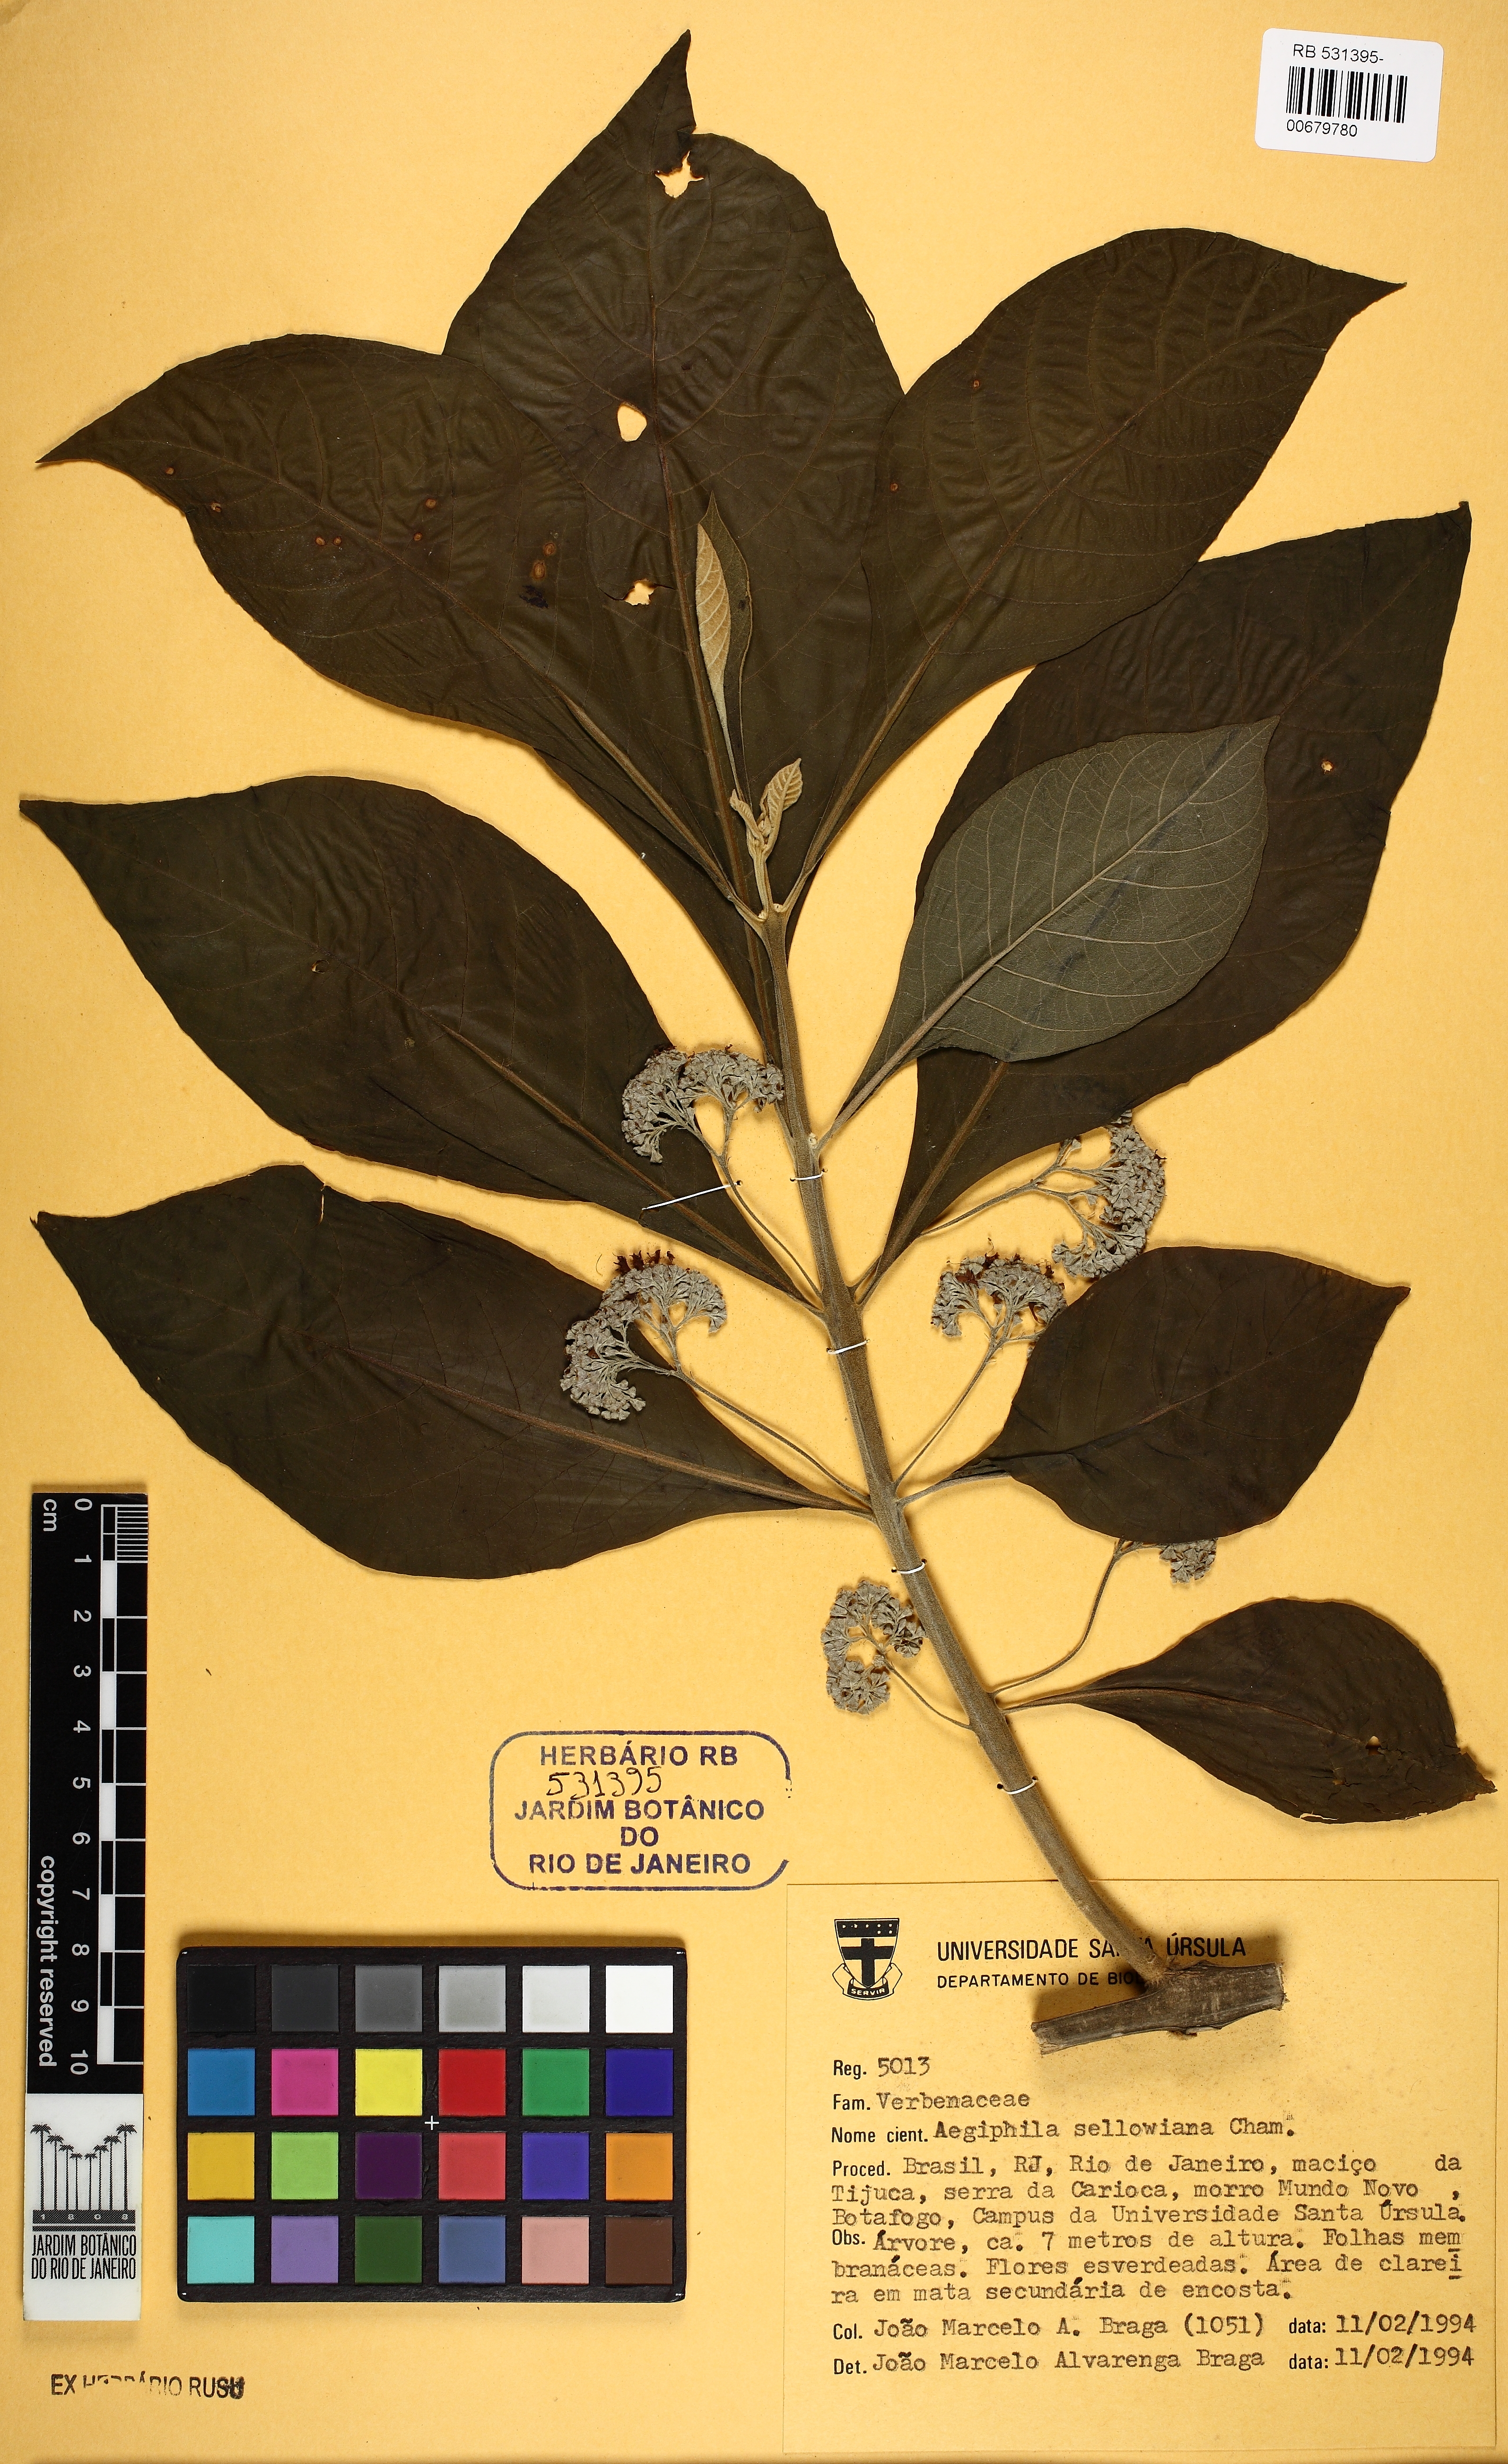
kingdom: Plantae
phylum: Tracheophyta
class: Magnoliopsida
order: Lamiales
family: Lamiaceae
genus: Aegiphila
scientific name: Aegiphila verticillata
